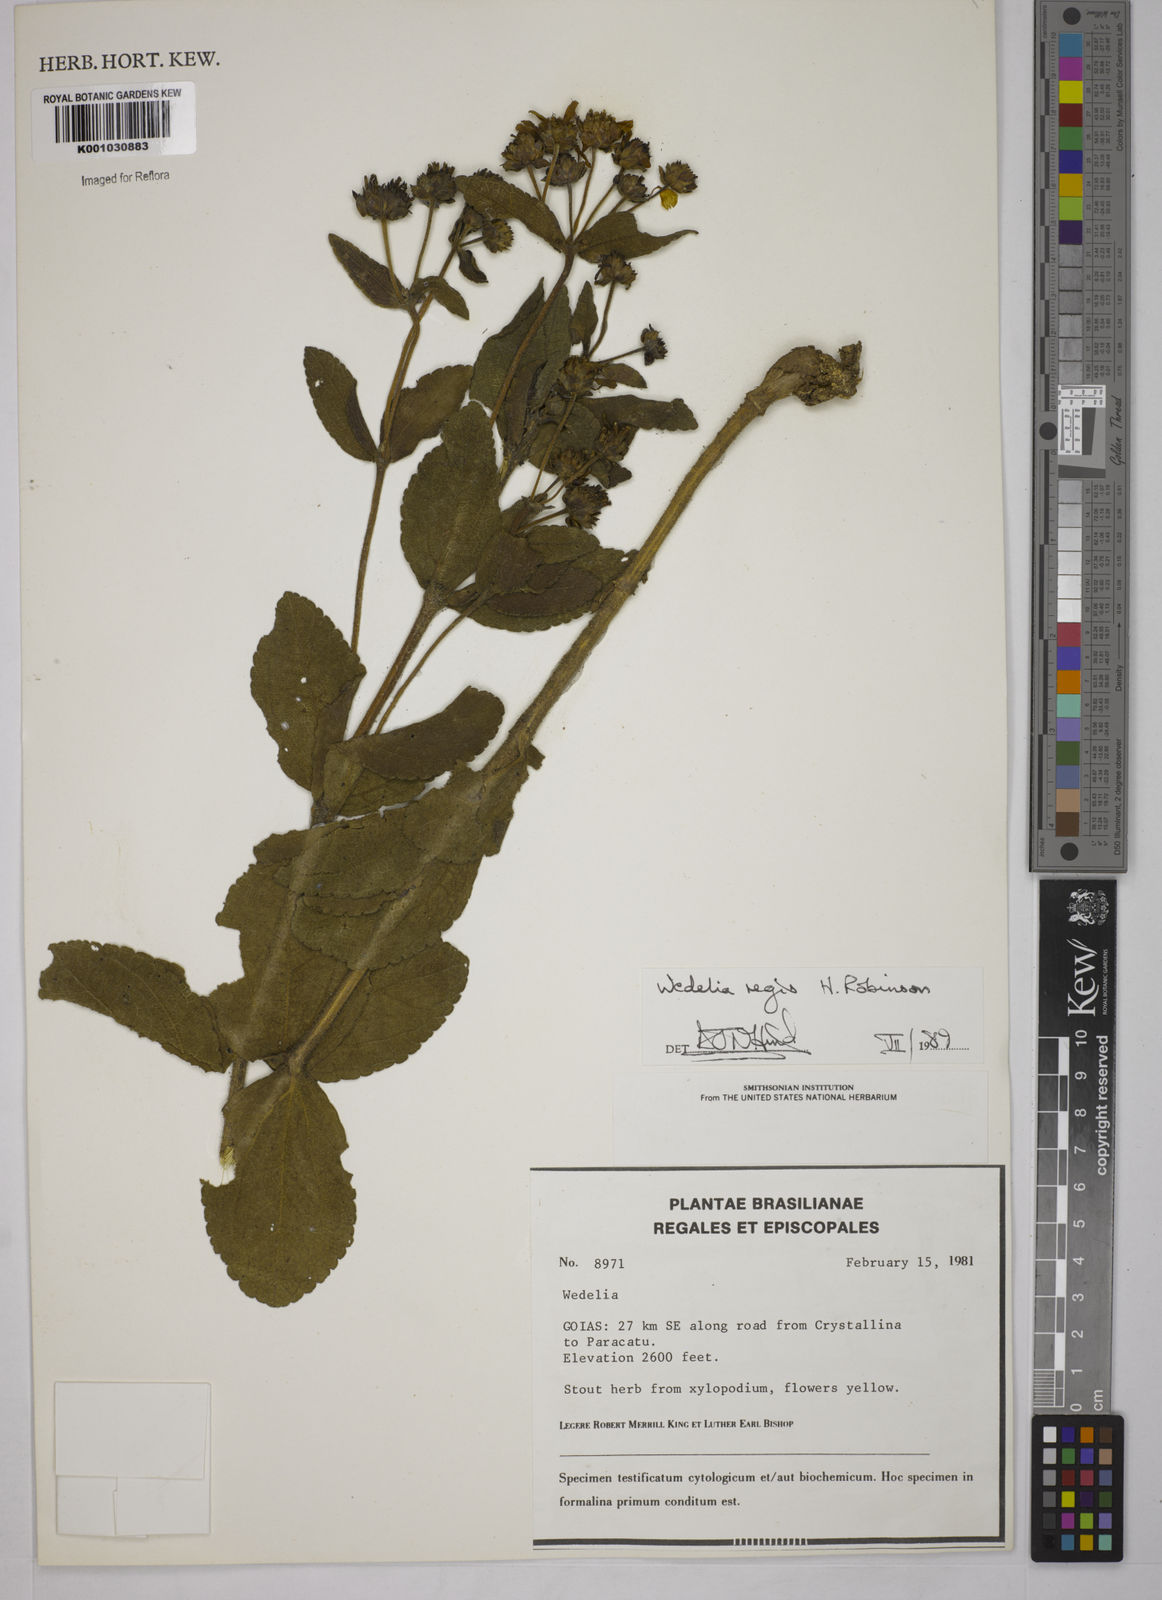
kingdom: Plantae
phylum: Tracheophyta
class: Magnoliopsida
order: Asterales
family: Asteraceae
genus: Wedelia
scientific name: Wedelia regis
